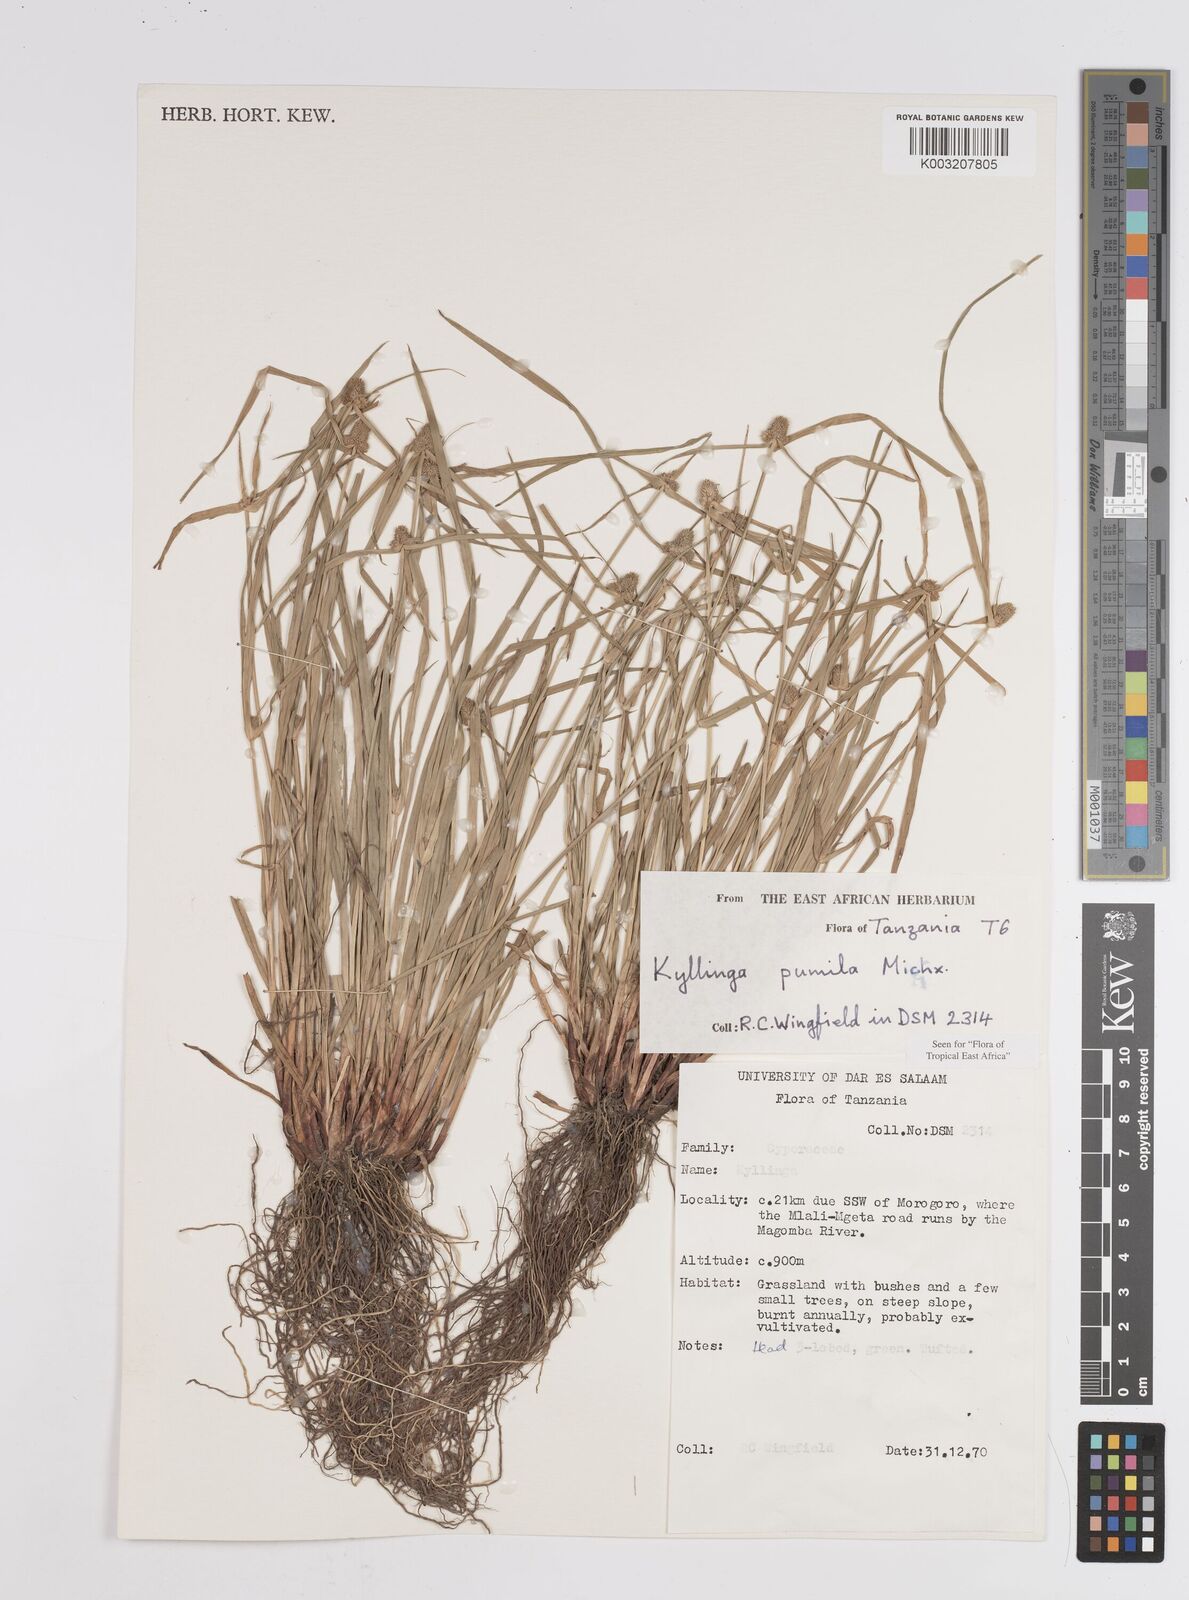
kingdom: Plantae
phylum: Tracheophyta
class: Liliopsida
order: Poales
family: Cyperaceae
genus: Cyperus
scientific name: Cyperus hortensis
